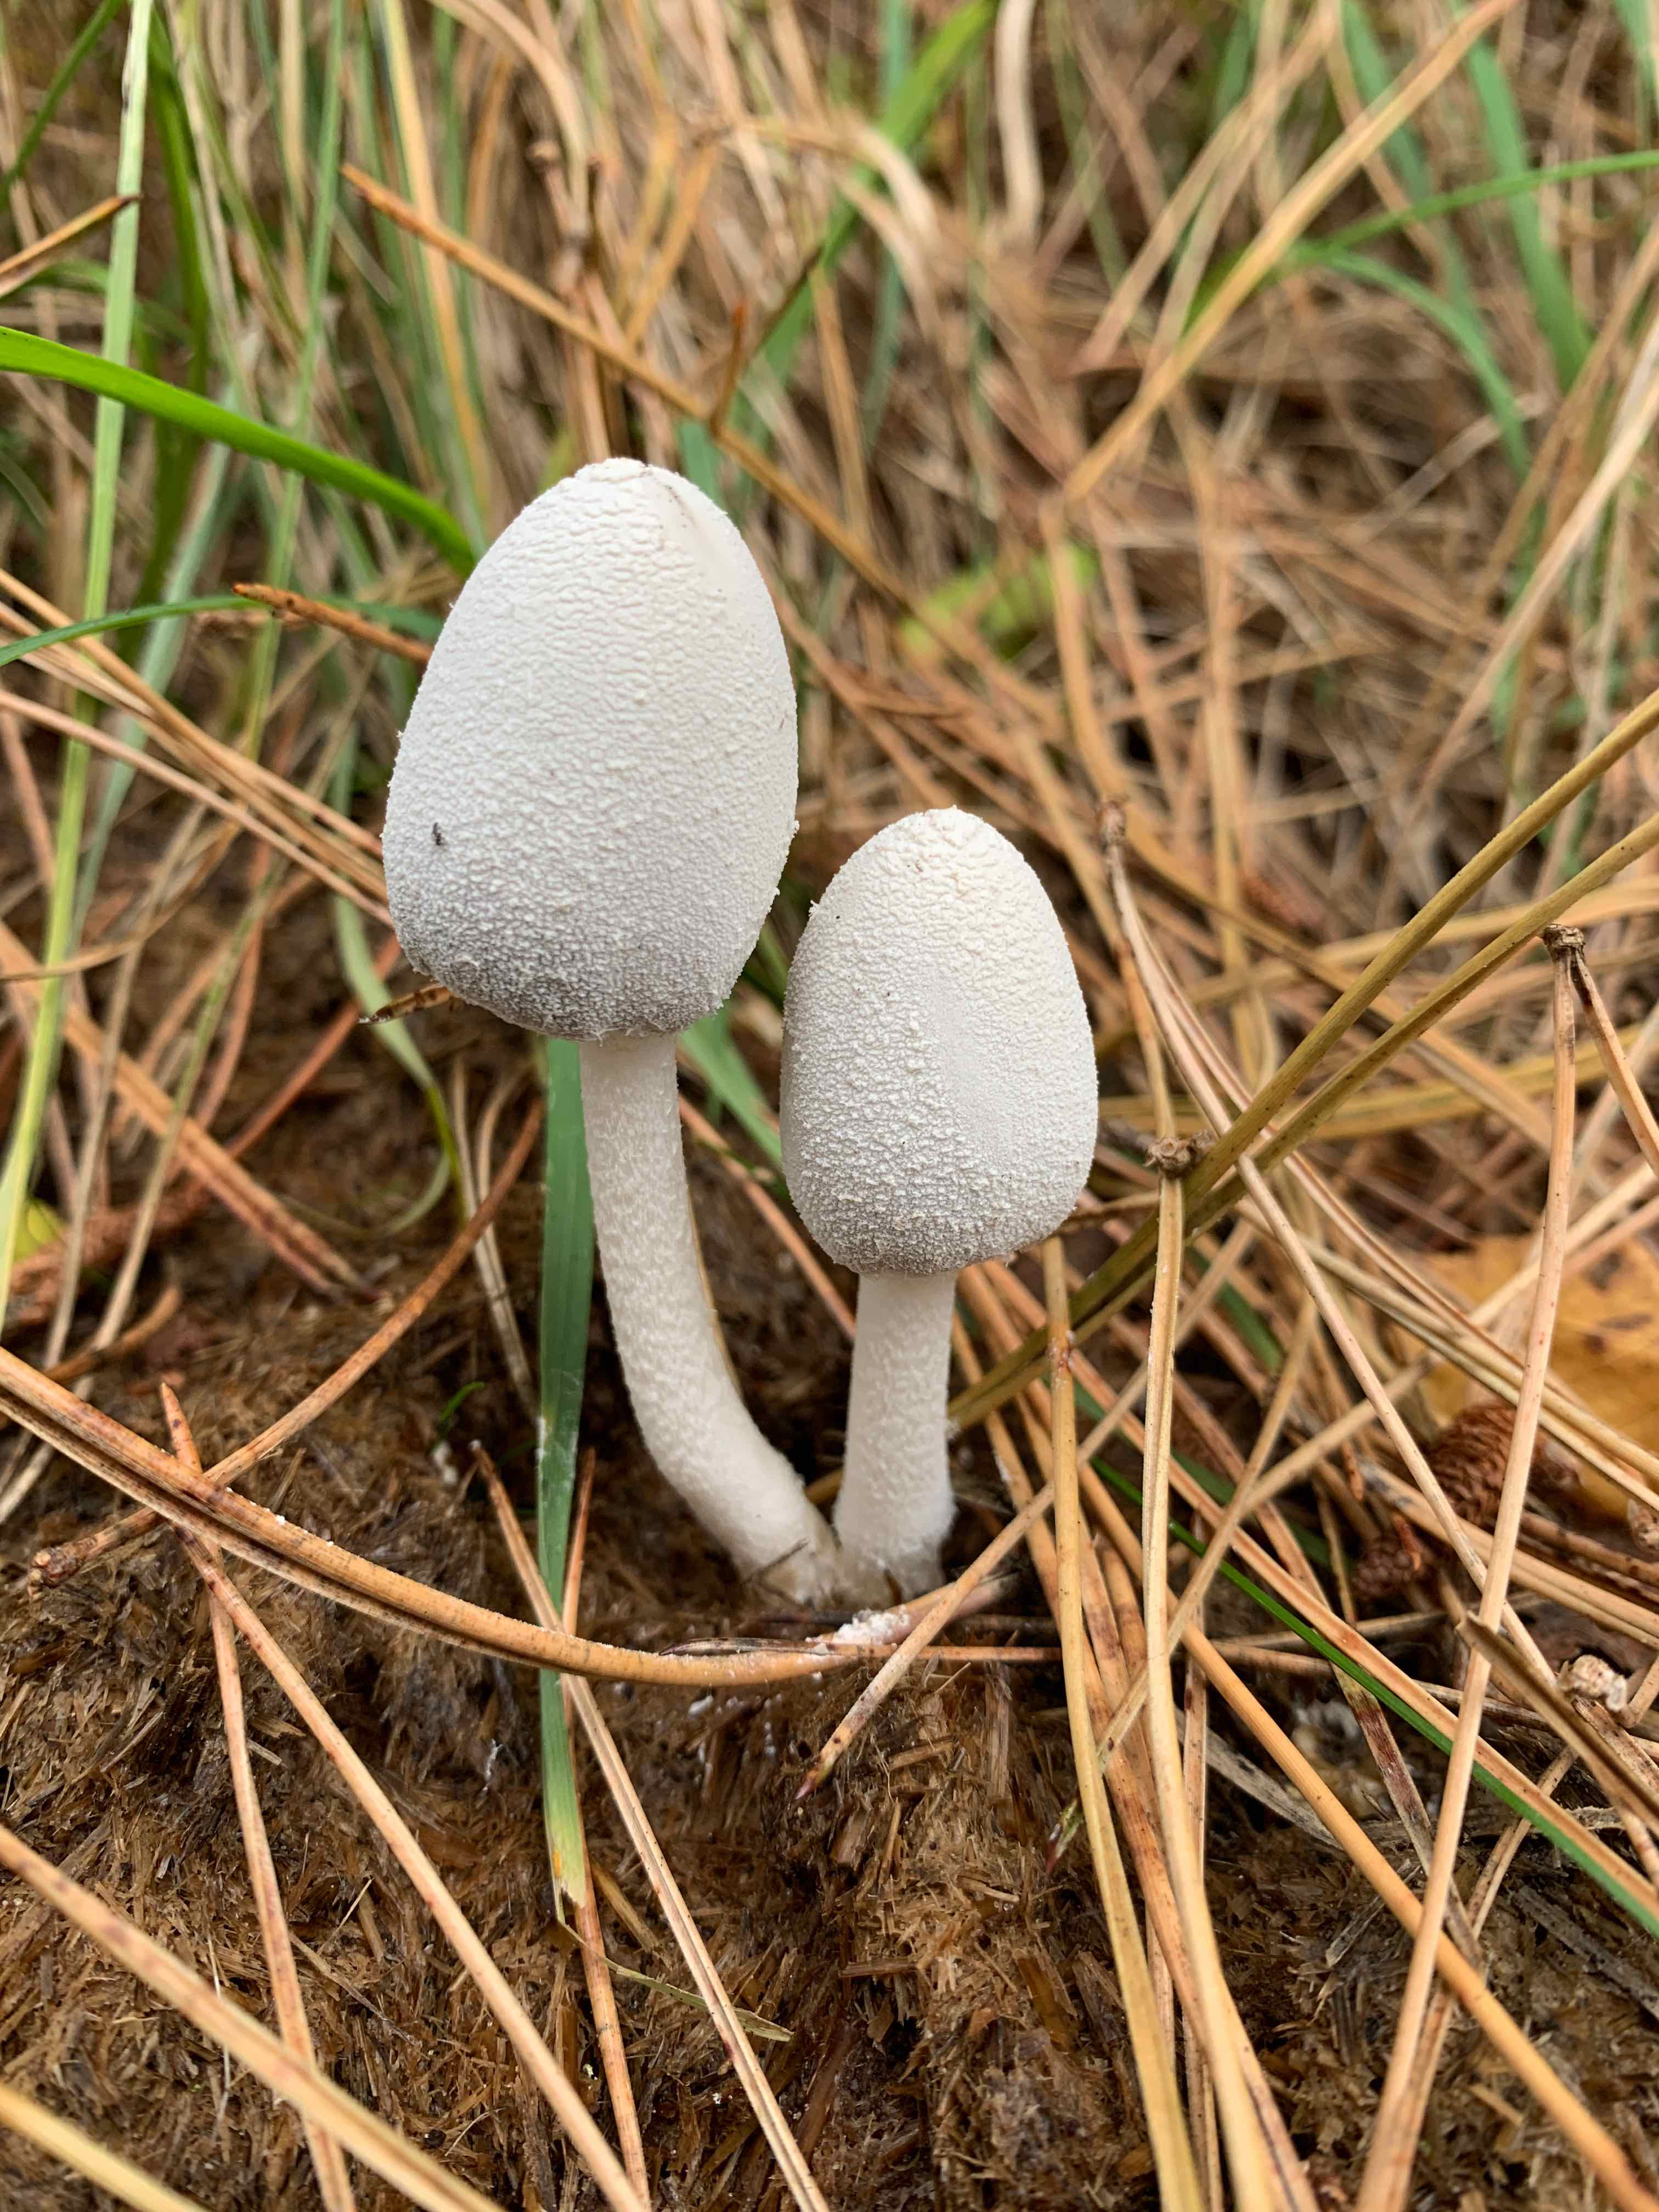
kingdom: Fungi
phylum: Basidiomycota
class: Agaricomycetes
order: Agaricales
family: Psathyrellaceae
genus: Coprinopsis
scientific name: Coprinopsis nivea
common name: snehvid blækhat
